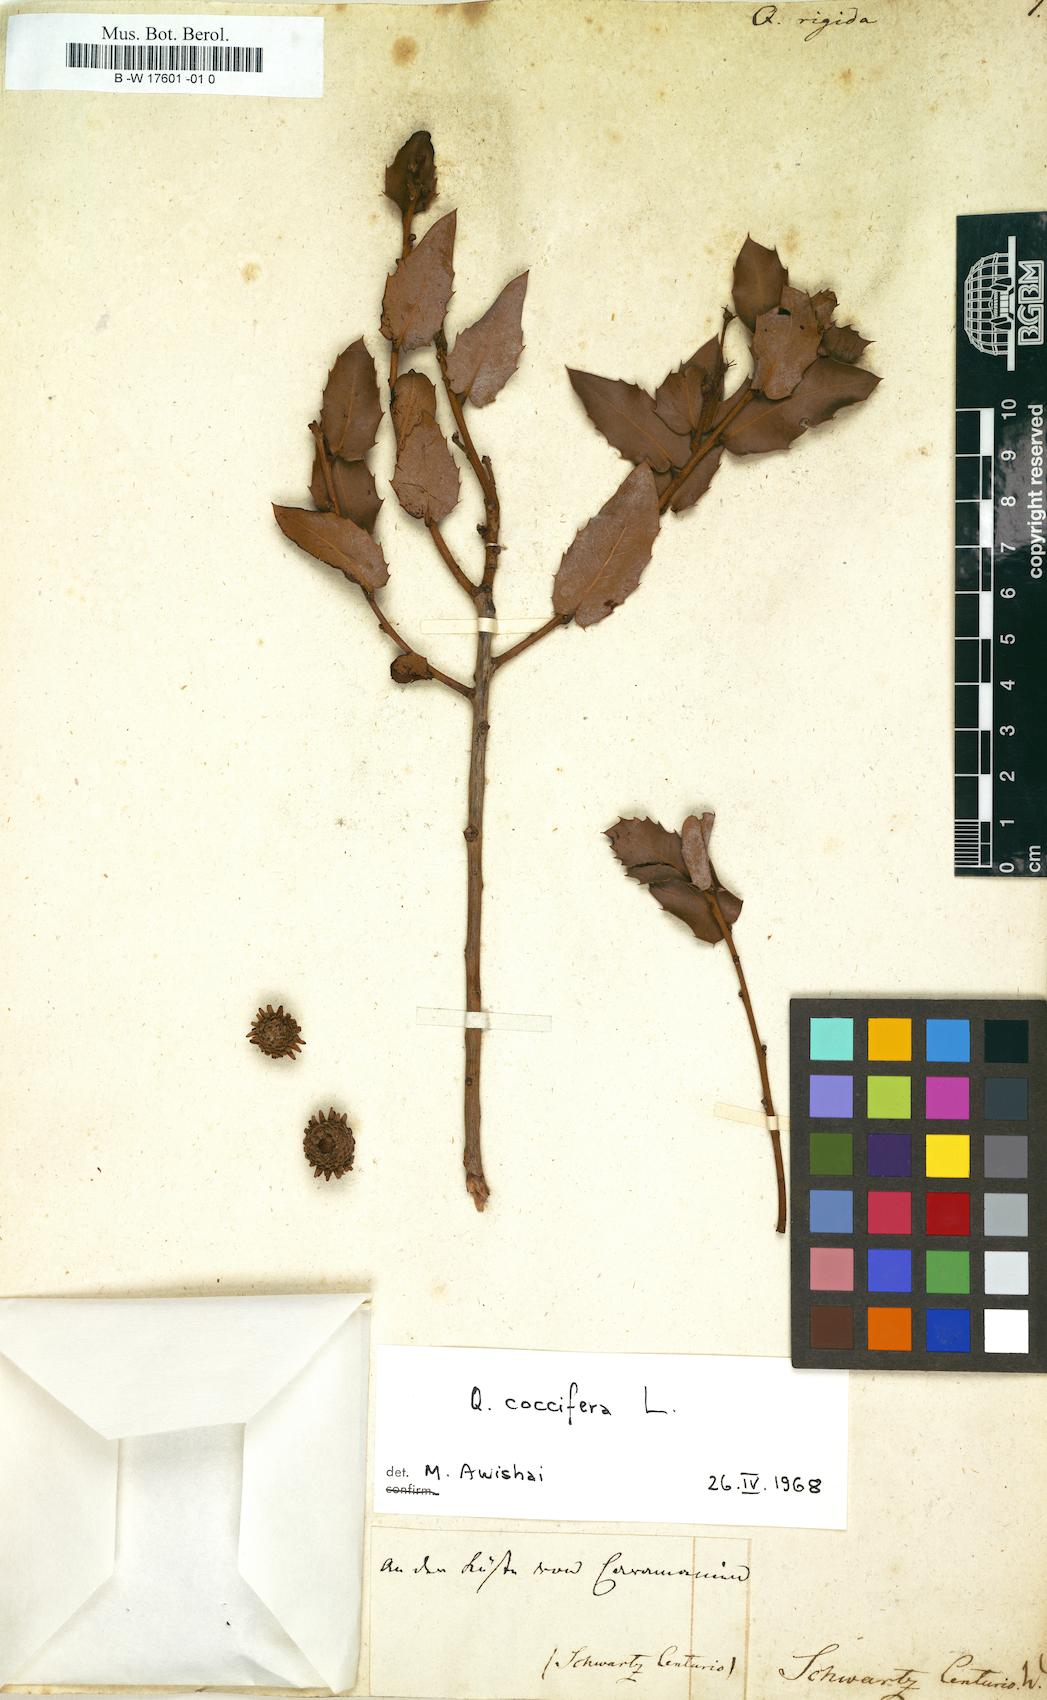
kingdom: Plantae
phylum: Tracheophyta
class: Magnoliopsida
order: Fagales
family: Fagaceae
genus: Quercus
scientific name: Quercus coccifera
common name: Kermes oak
